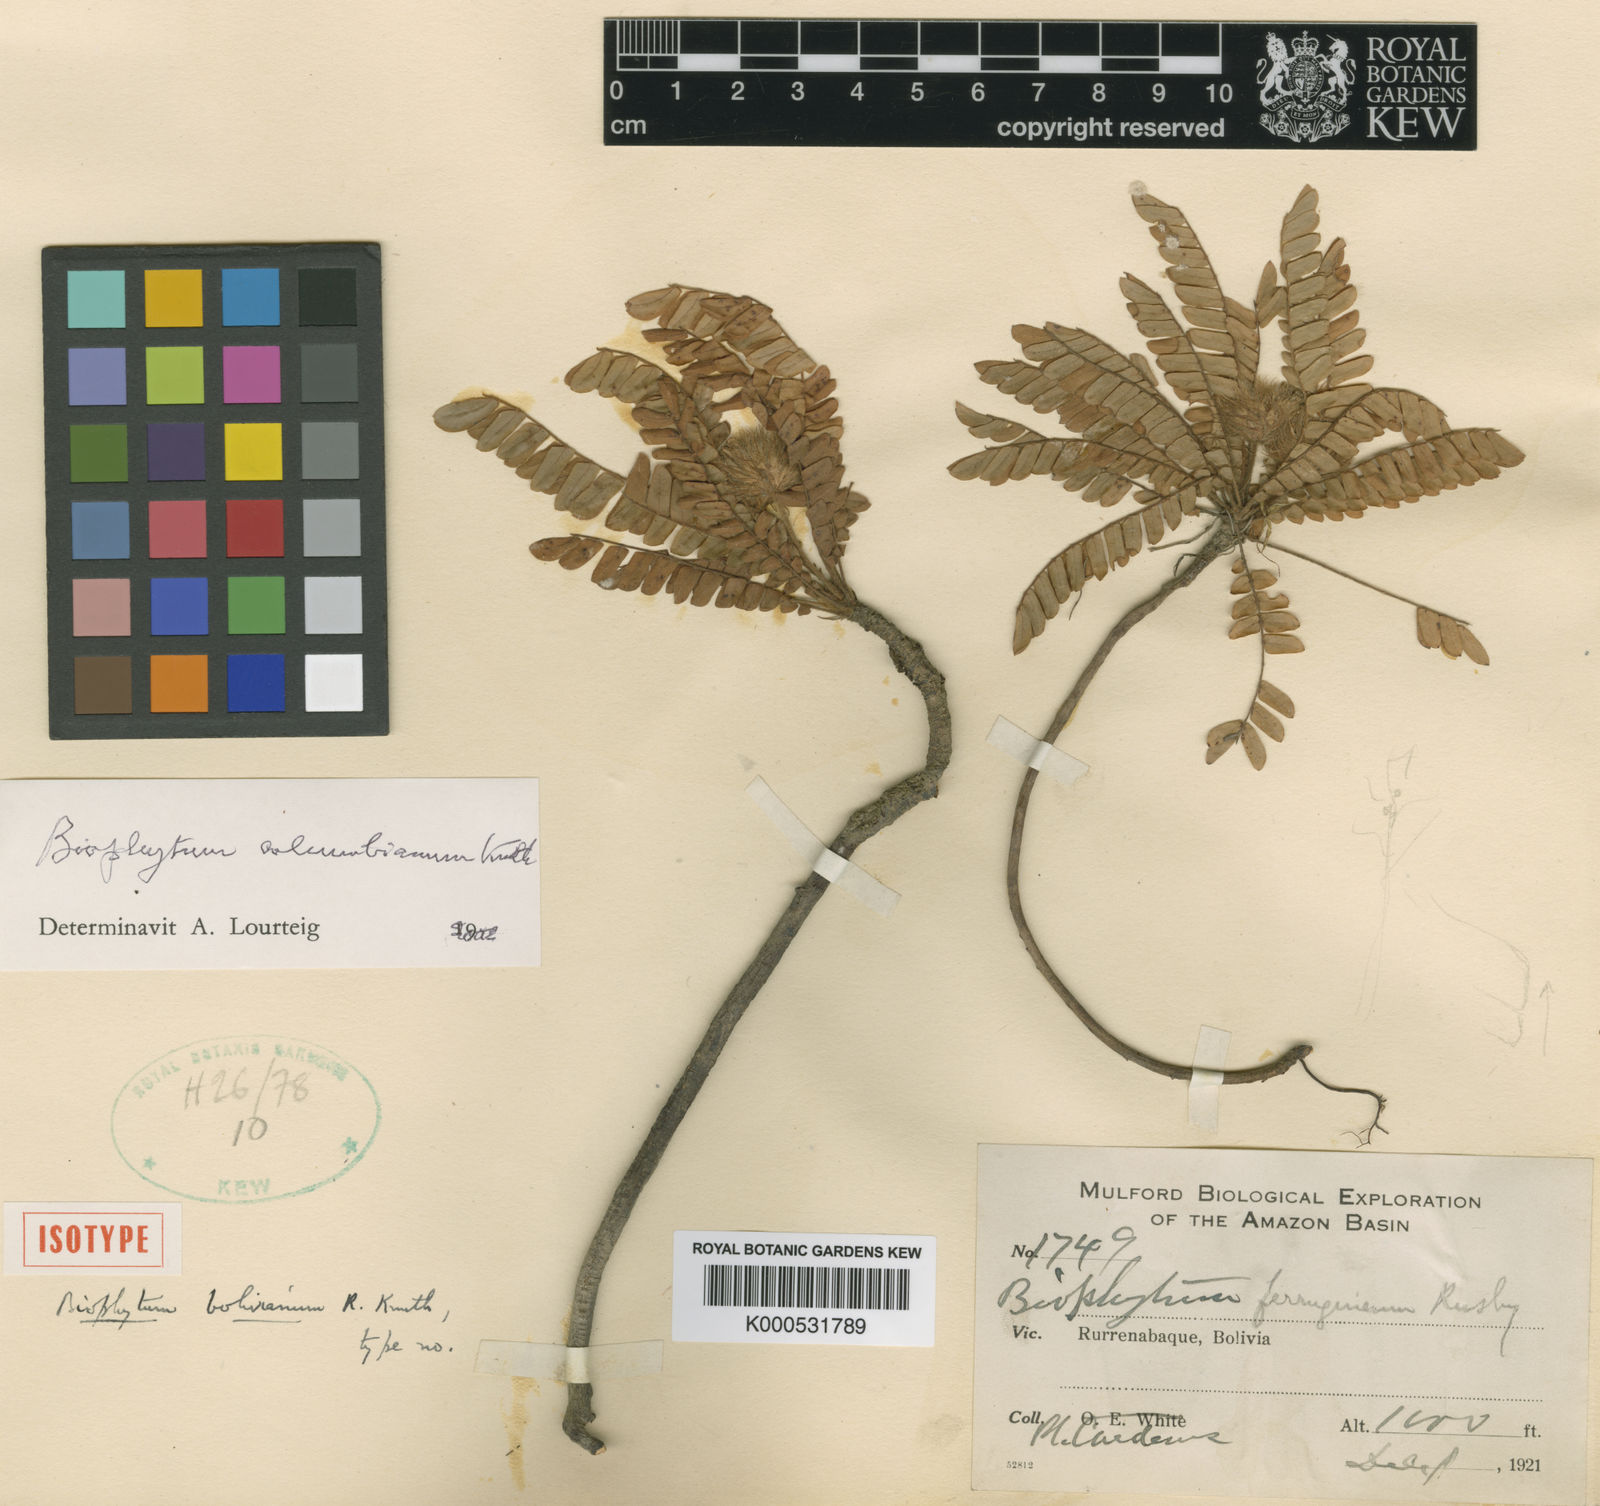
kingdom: Plantae
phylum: Tracheophyta
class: Magnoliopsida
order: Oxalidales
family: Oxalidaceae
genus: Biophytum
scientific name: Biophytum columbianum
